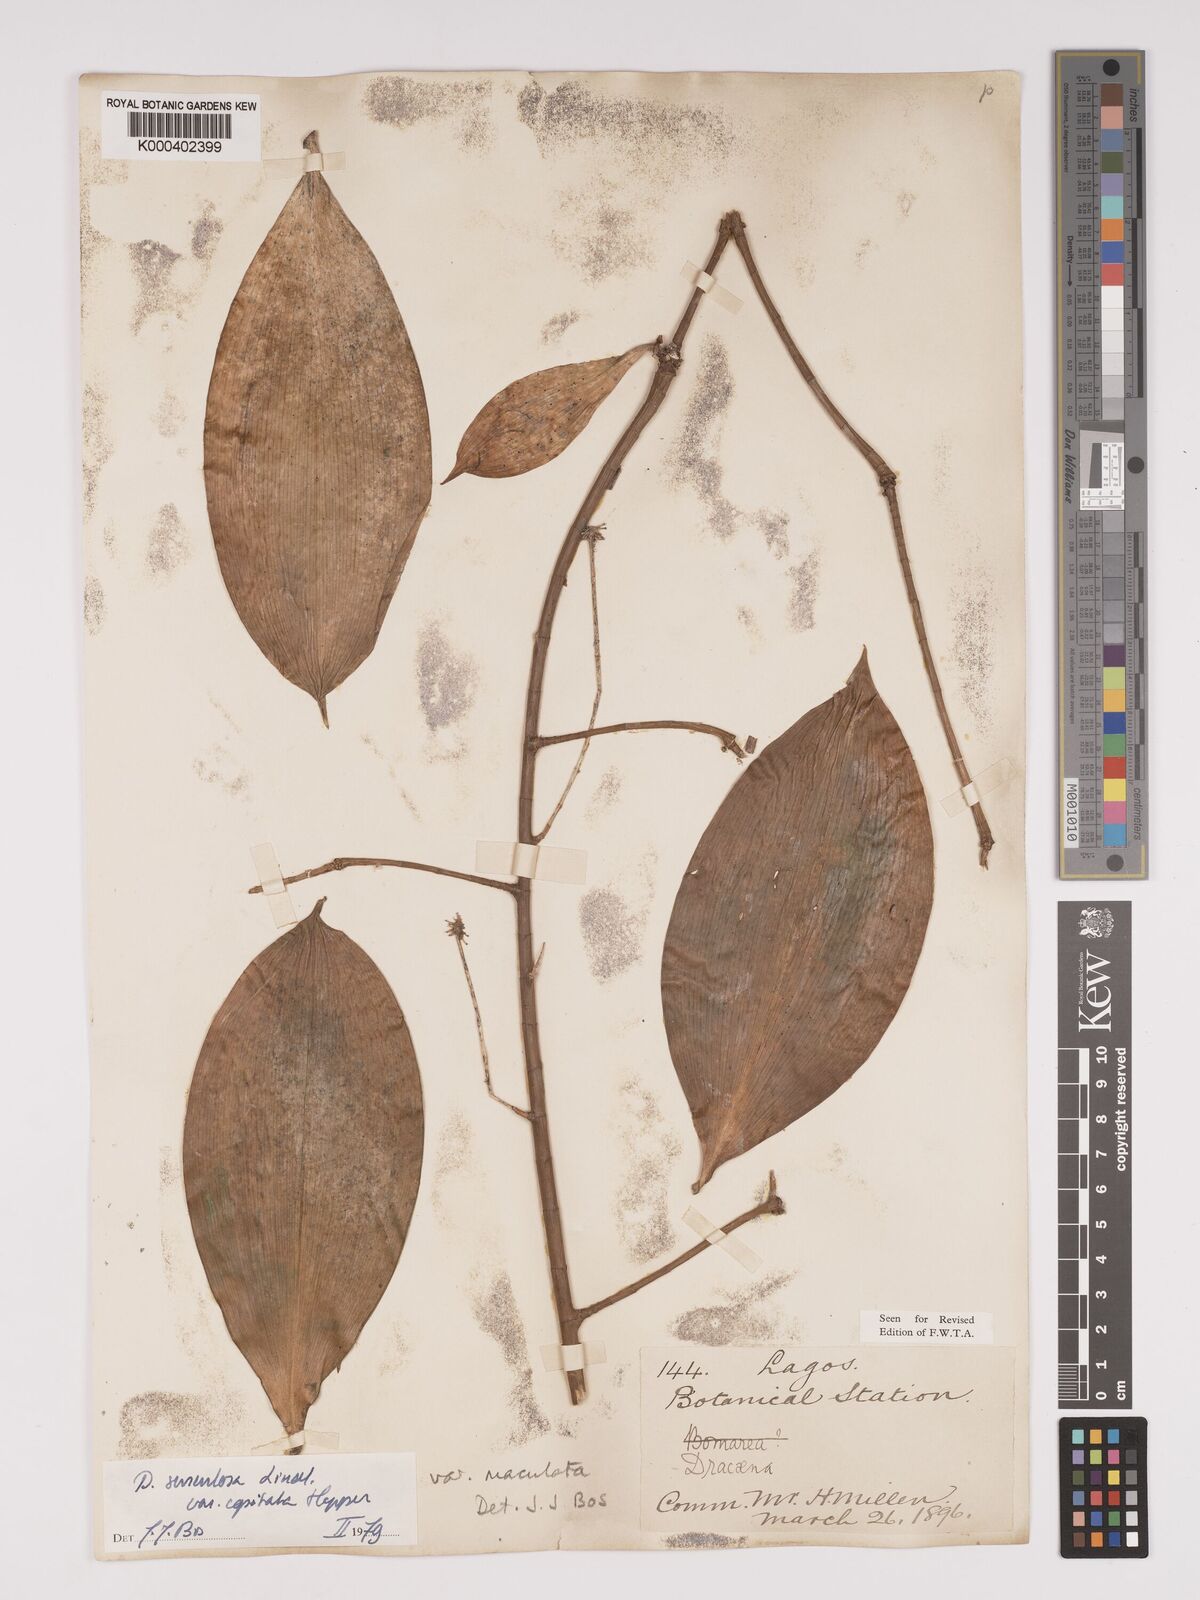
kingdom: Plantae
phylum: Tracheophyta
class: Liliopsida
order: Asparagales
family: Asparagaceae
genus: Dracaena
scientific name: Dracaena surculosa
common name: Spotted dracaena
